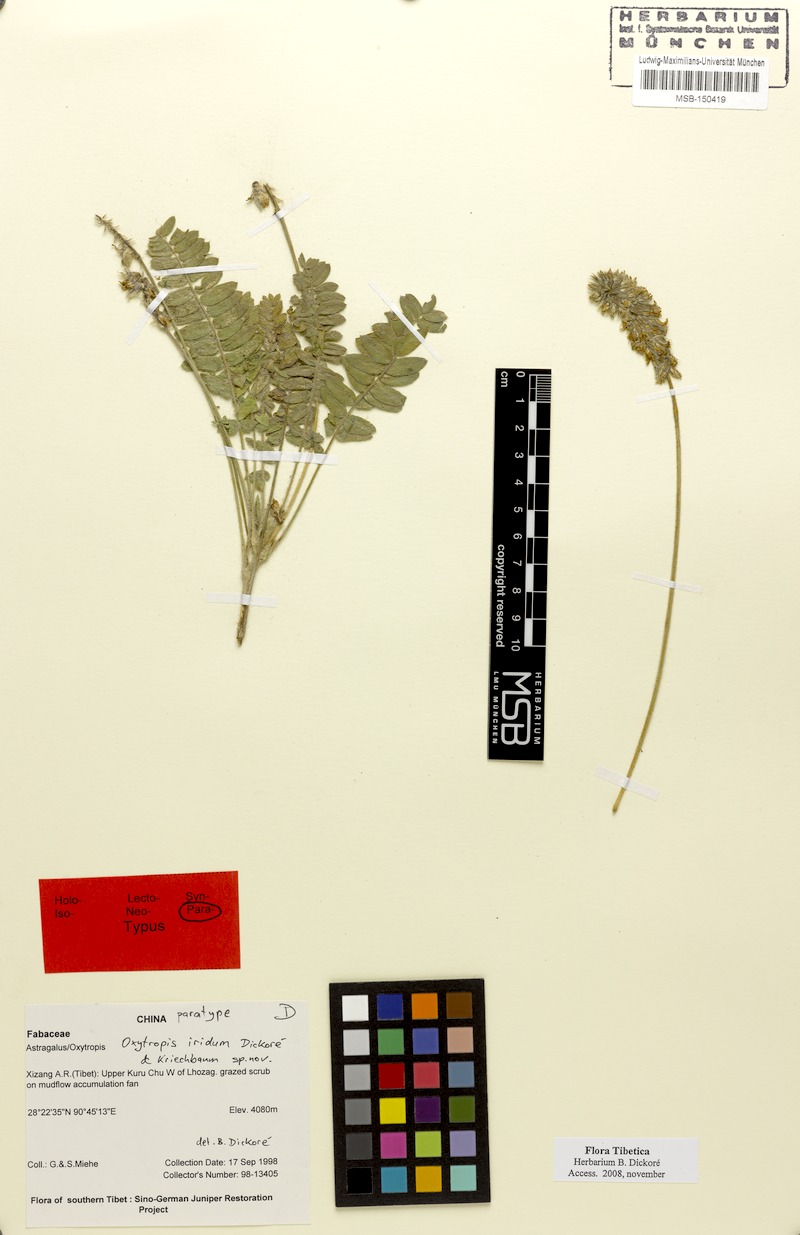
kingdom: Plantae
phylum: Tracheophyta
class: Magnoliopsida
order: Fabales
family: Fabaceae
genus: Oxytropis
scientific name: Oxytropis mollis
